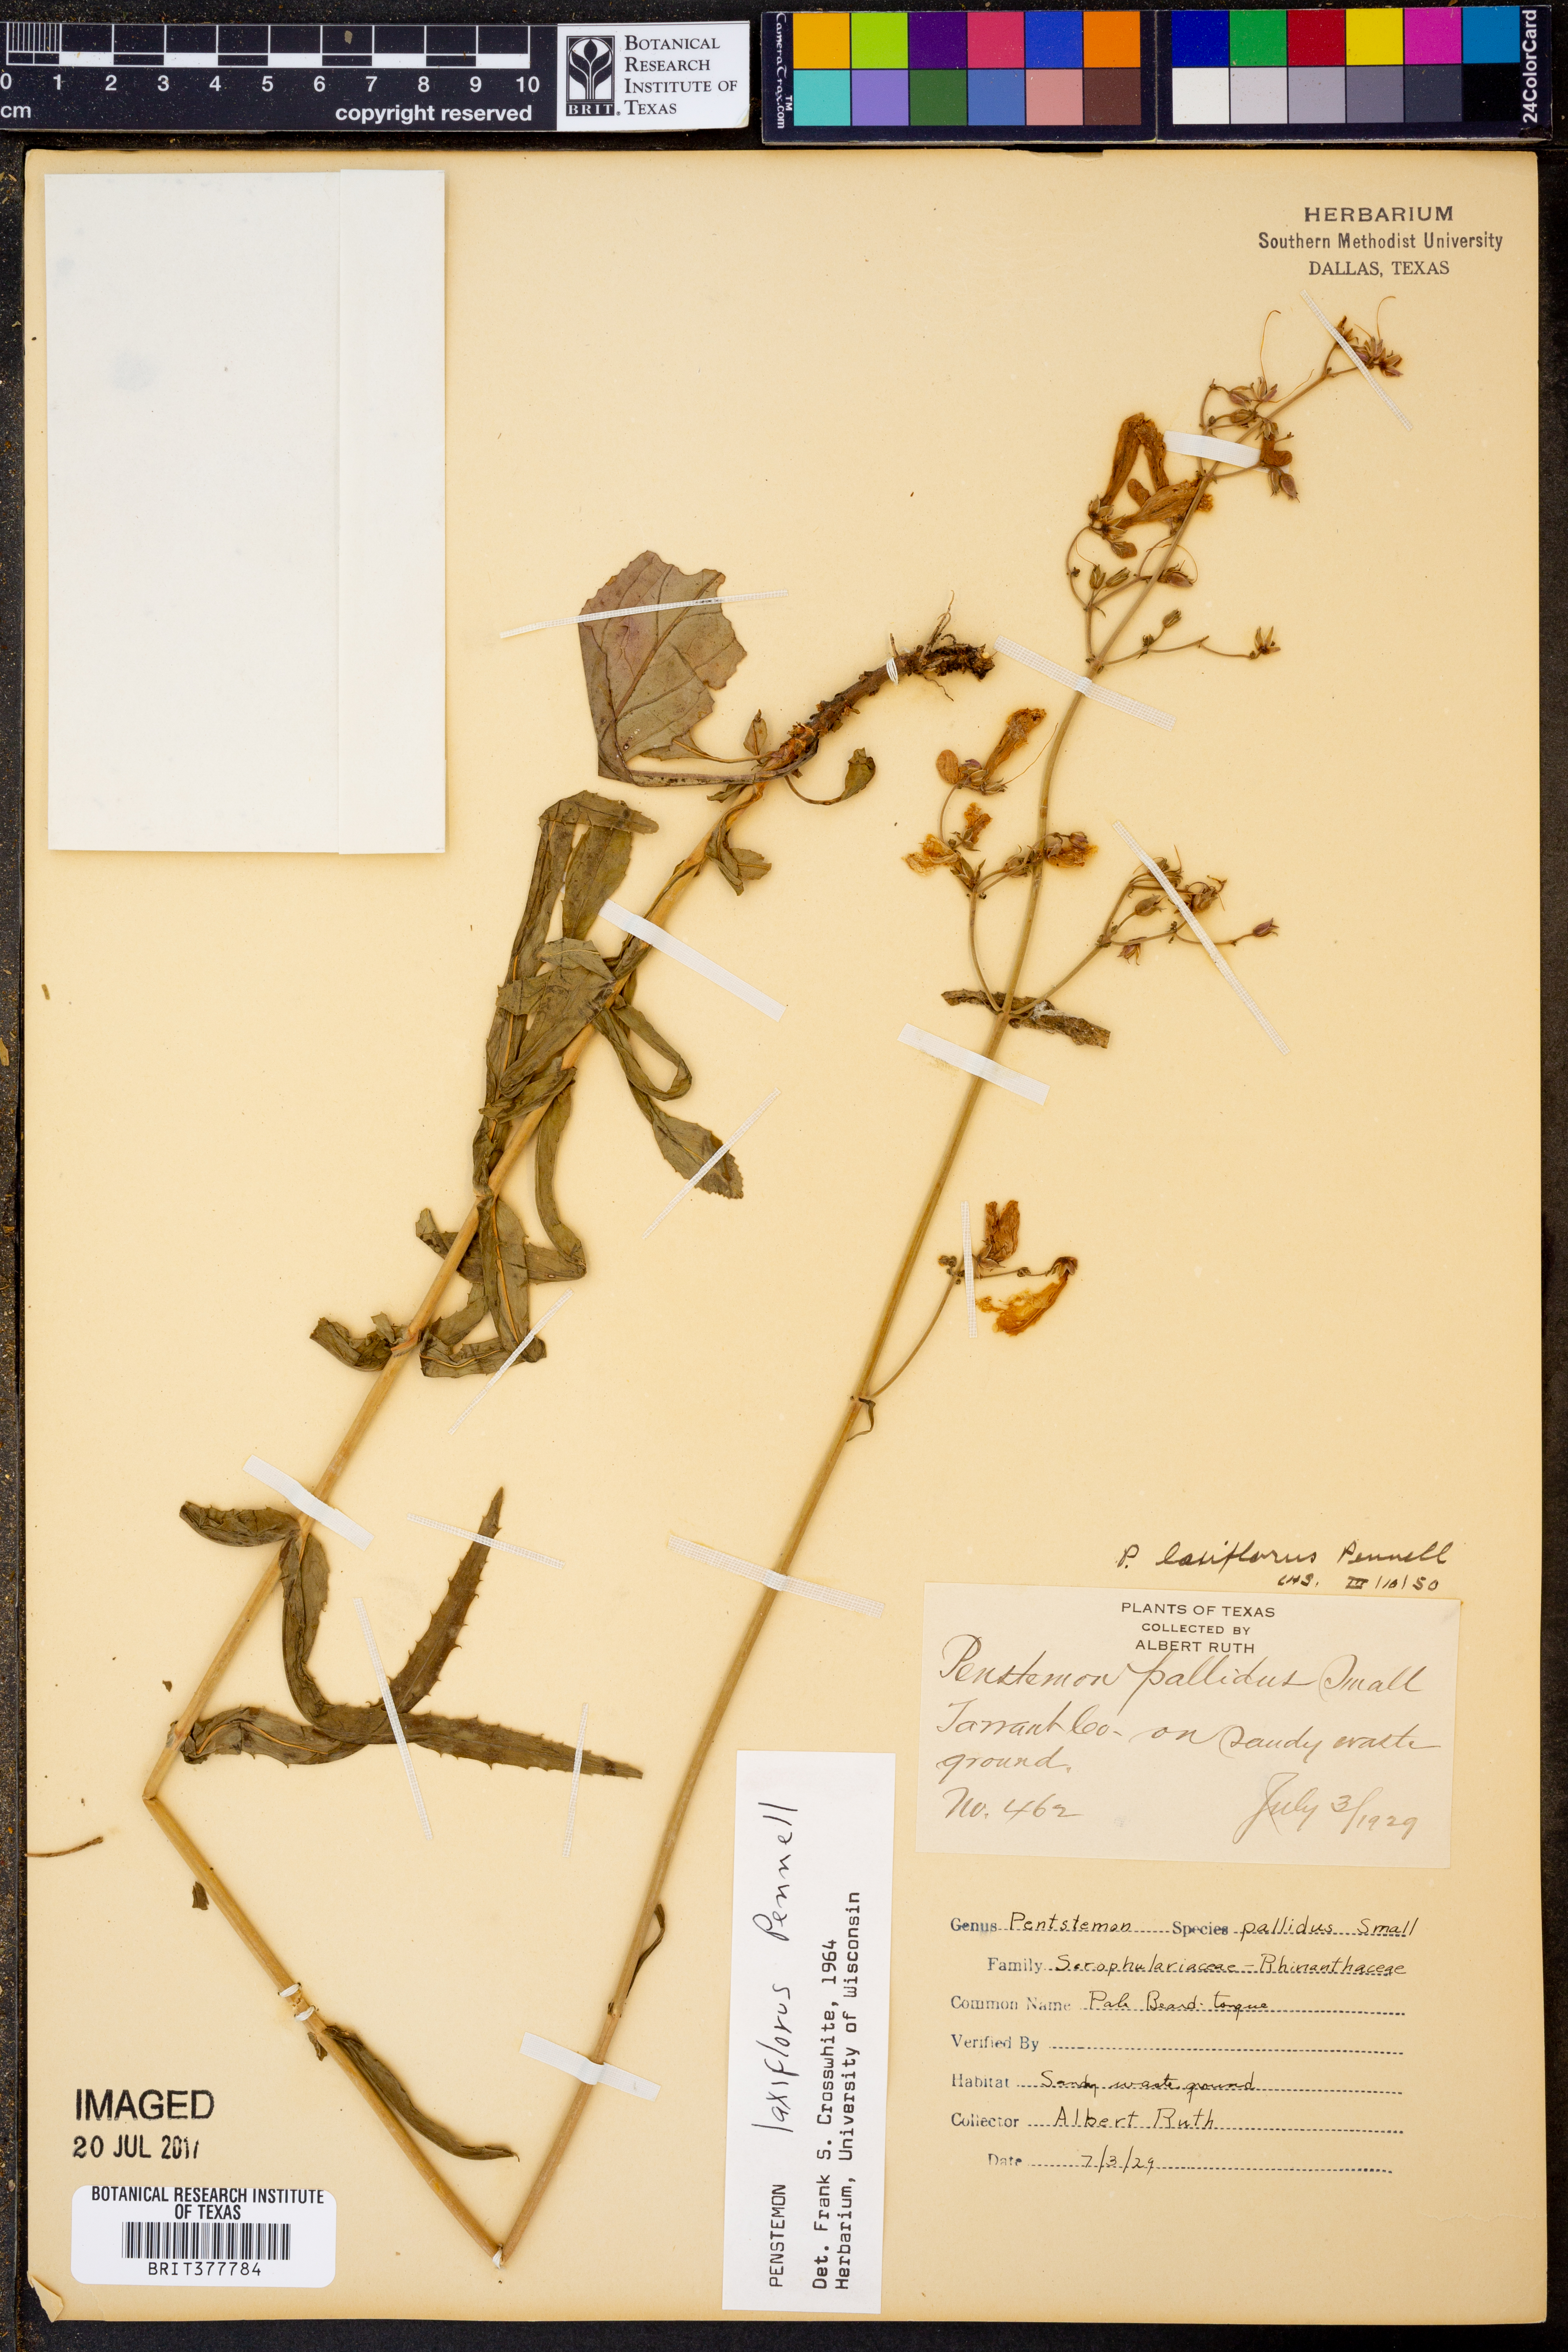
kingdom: Plantae
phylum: Tracheophyta
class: Magnoliopsida
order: Lamiales
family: Plantaginaceae
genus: Penstemon
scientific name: Penstemon laxiflorus
